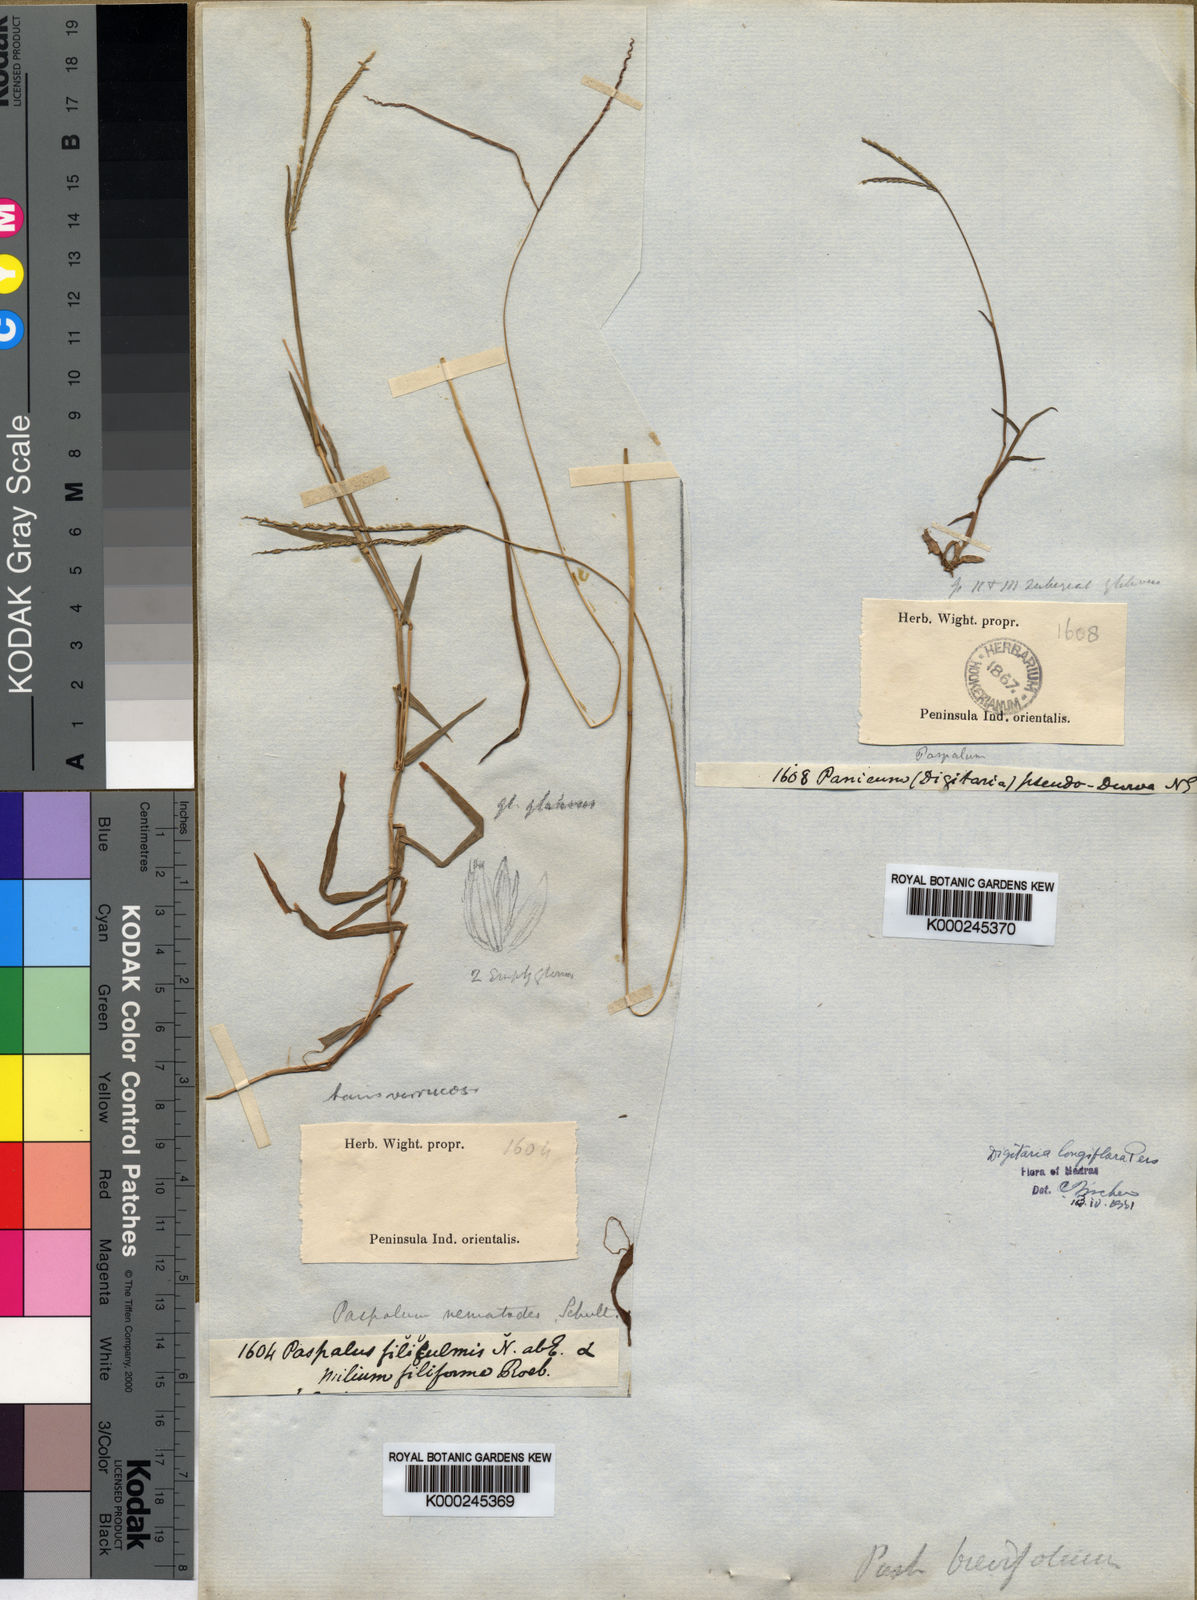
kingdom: Plantae
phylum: Tracheophyta
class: Liliopsida
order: Poales
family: Poaceae
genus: Digitaria
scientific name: Digitaria longiflora
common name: Wire crabgrass
